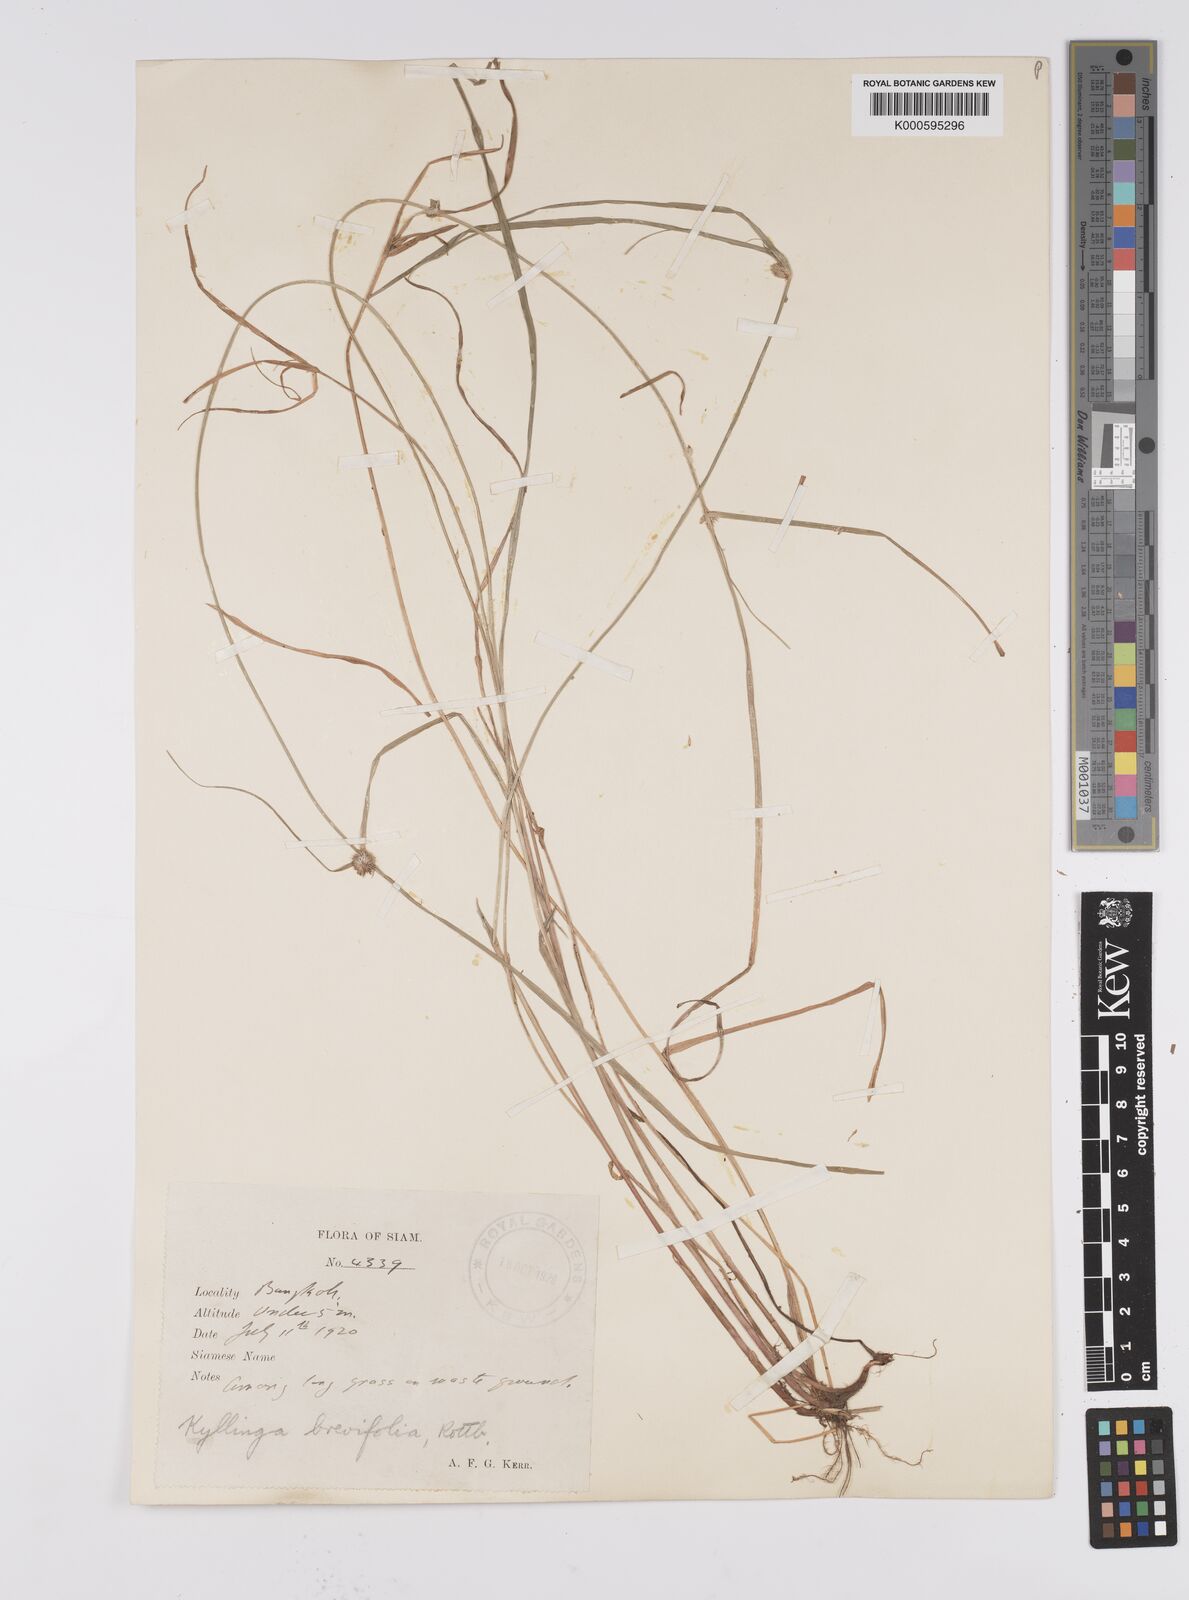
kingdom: Plantae
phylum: Tracheophyta
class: Liliopsida
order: Poales
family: Cyperaceae
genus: Cyperus
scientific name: Cyperus brevifolius
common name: Globe kyllinga
